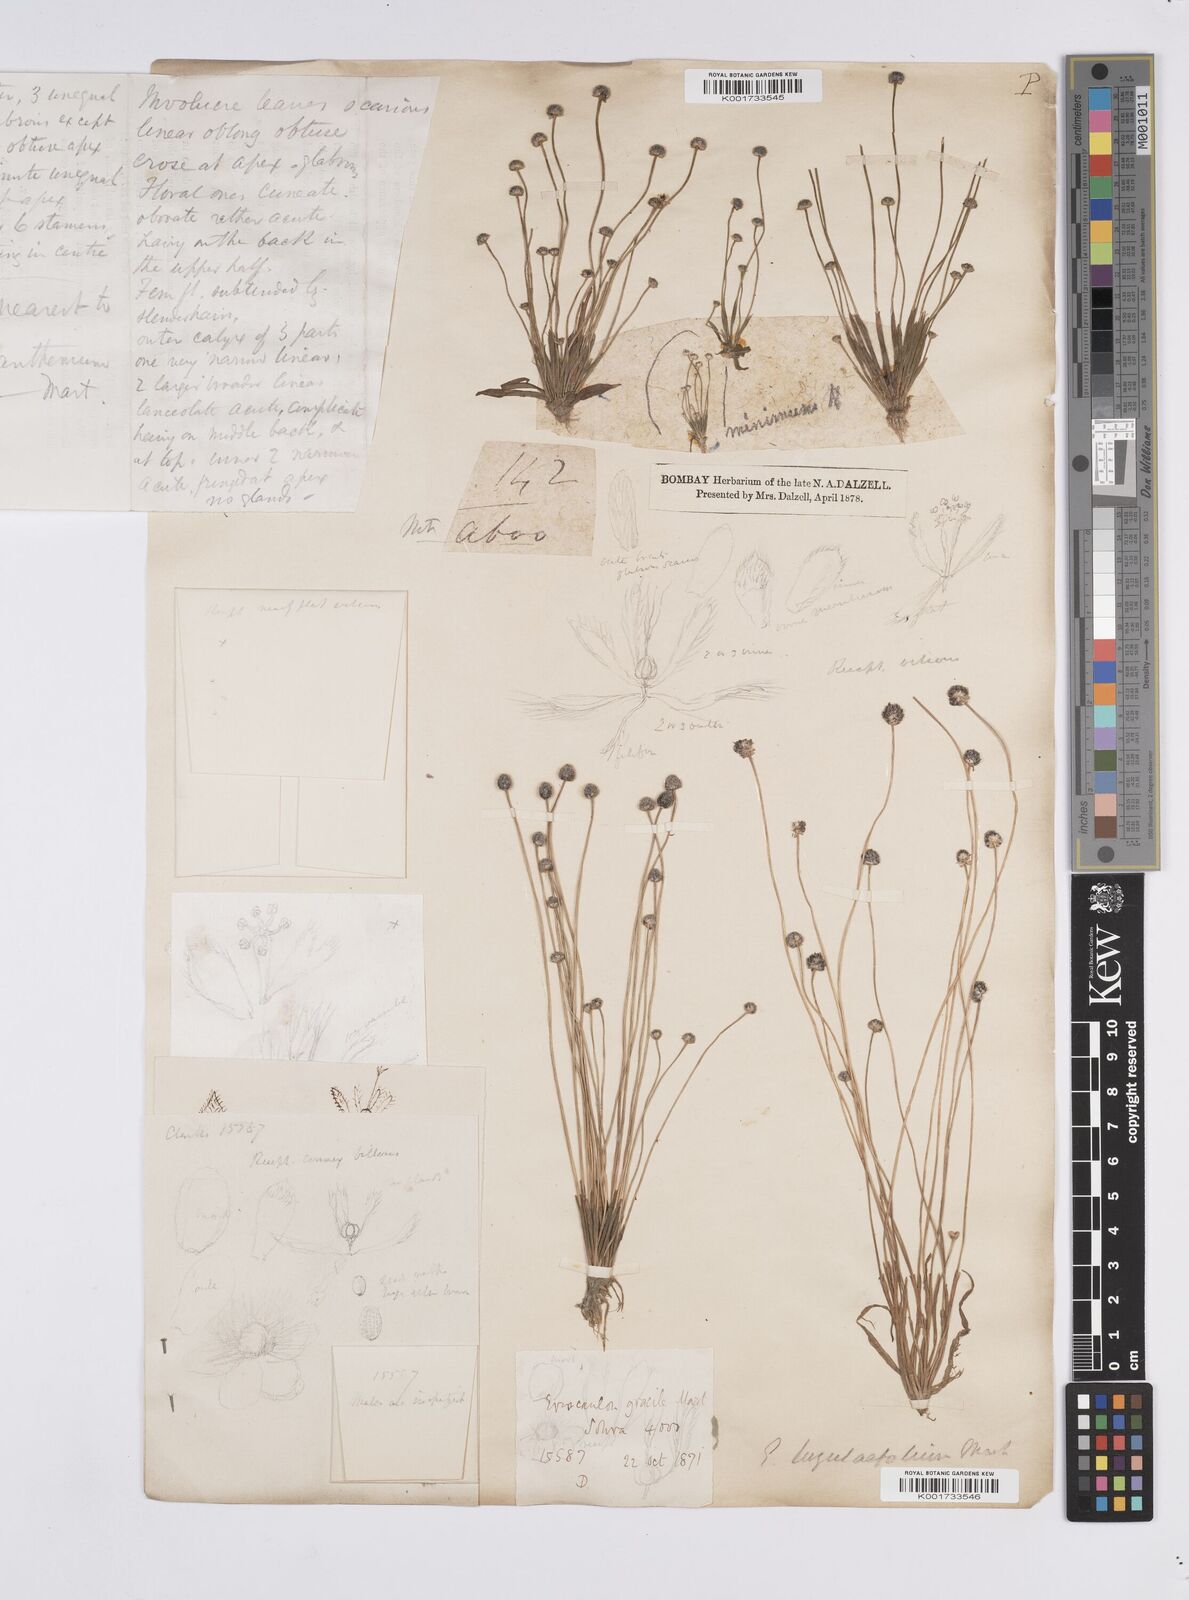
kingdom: Plantae
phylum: Tracheophyta
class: Liliopsida
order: Poales
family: Eriocaulaceae
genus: Eriocaulon
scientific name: Eriocaulon nepalense
